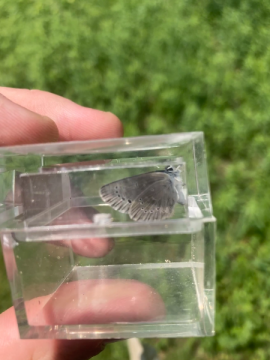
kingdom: Animalia
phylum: Arthropoda
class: Insecta
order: Lepidoptera
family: Lycaenidae
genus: Glaucopsyche
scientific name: Glaucopsyche lygdamus
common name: Silvery Blue
